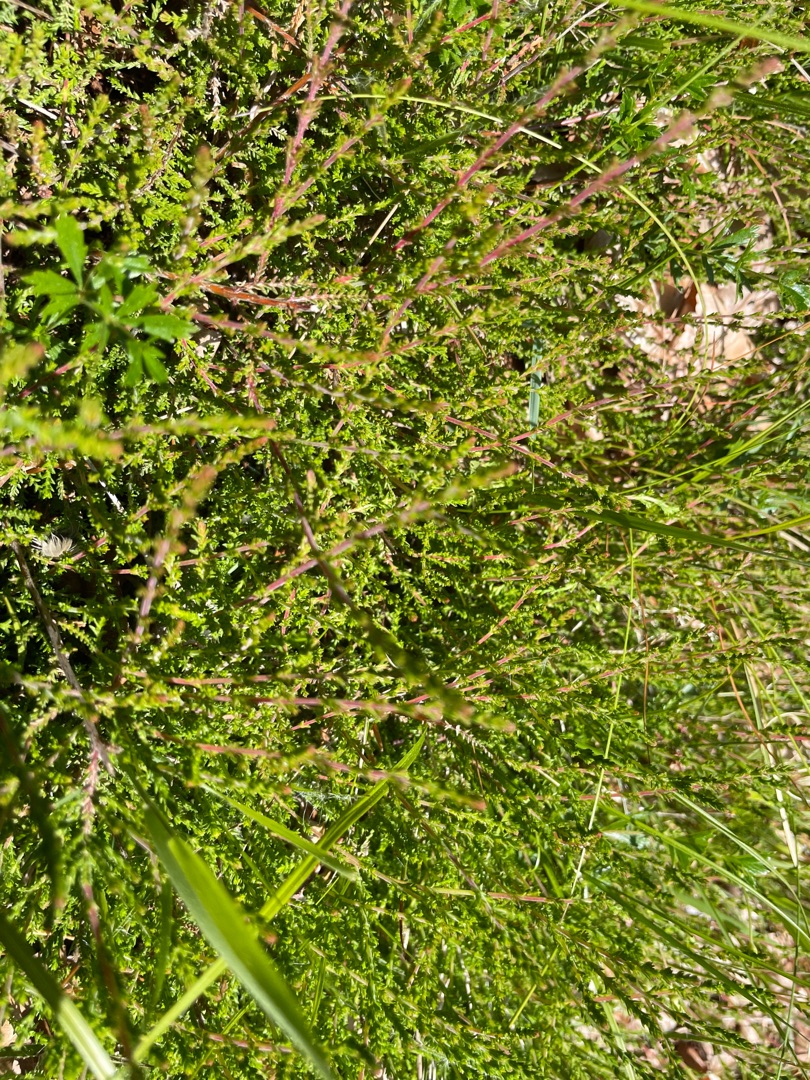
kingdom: Plantae
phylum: Tracheophyta
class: Magnoliopsida
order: Ericales
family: Ericaceae
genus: Calluna
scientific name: Calluna vulgaris
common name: Hedelyng
